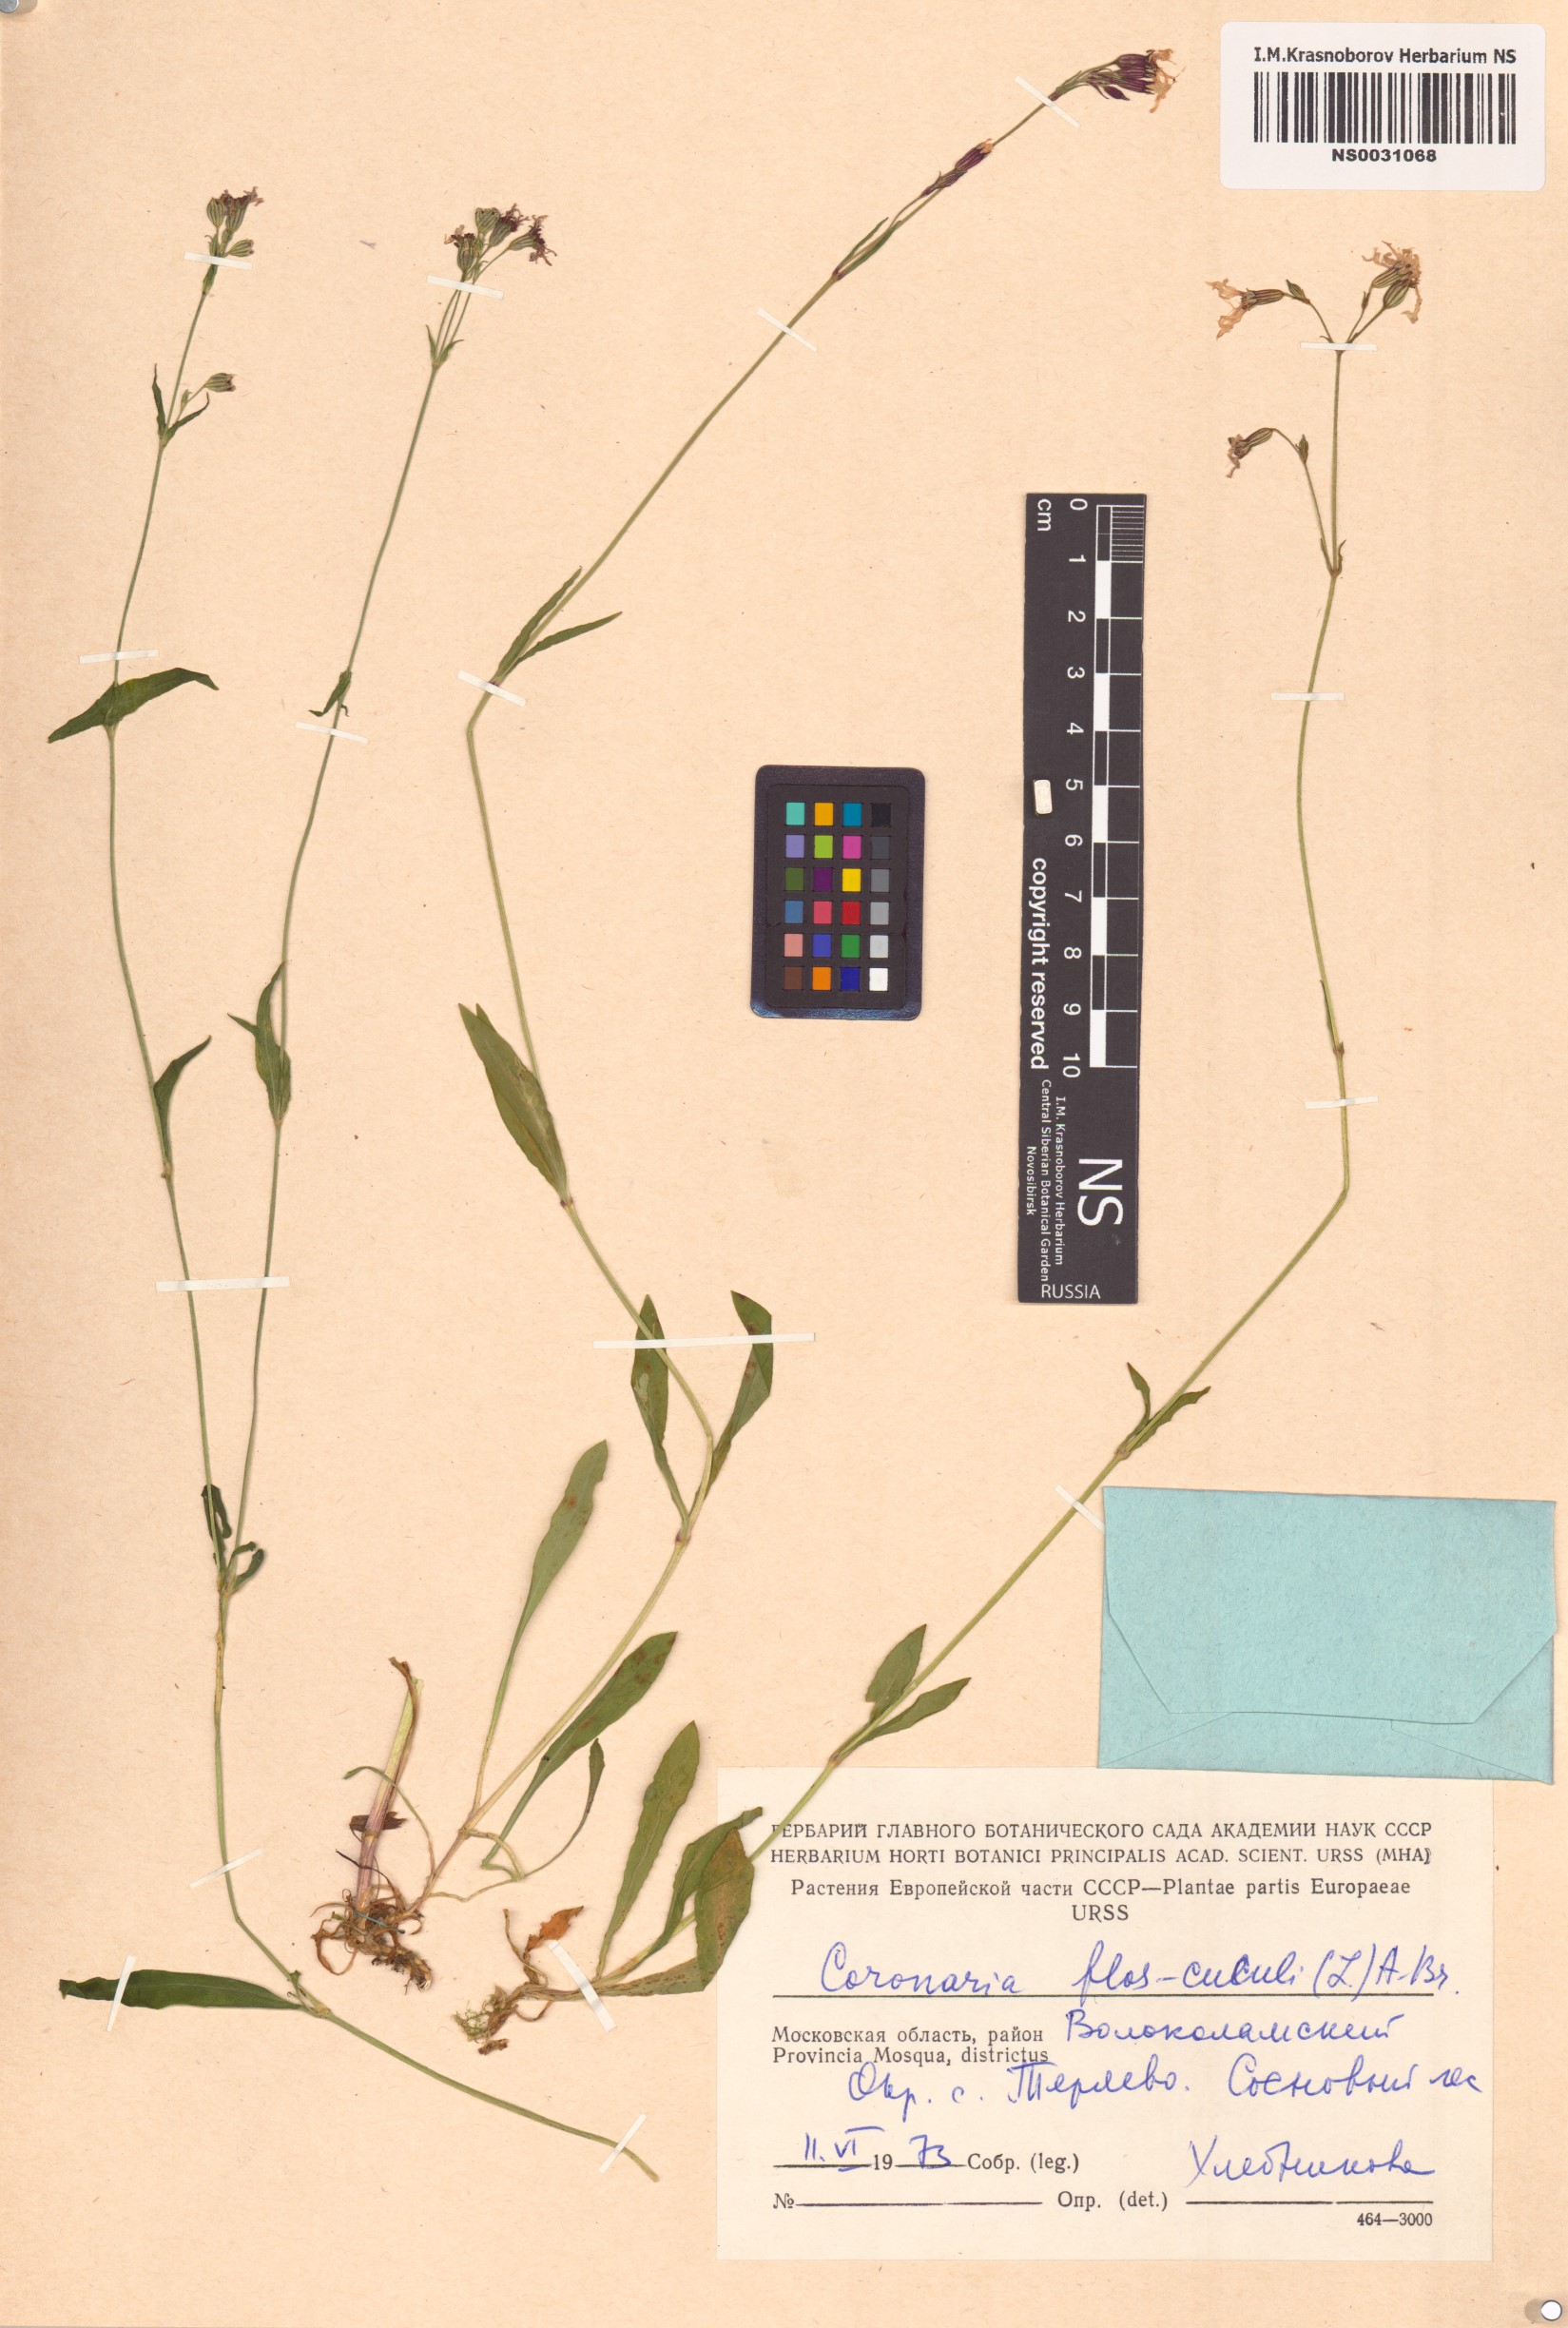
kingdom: Plantae
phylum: Tracheophyta
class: Magnoliopsida
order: Caryophyllales
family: Caryophyllaceae
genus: Silene
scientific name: Silene flos-cuculi
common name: Ragged-robin
